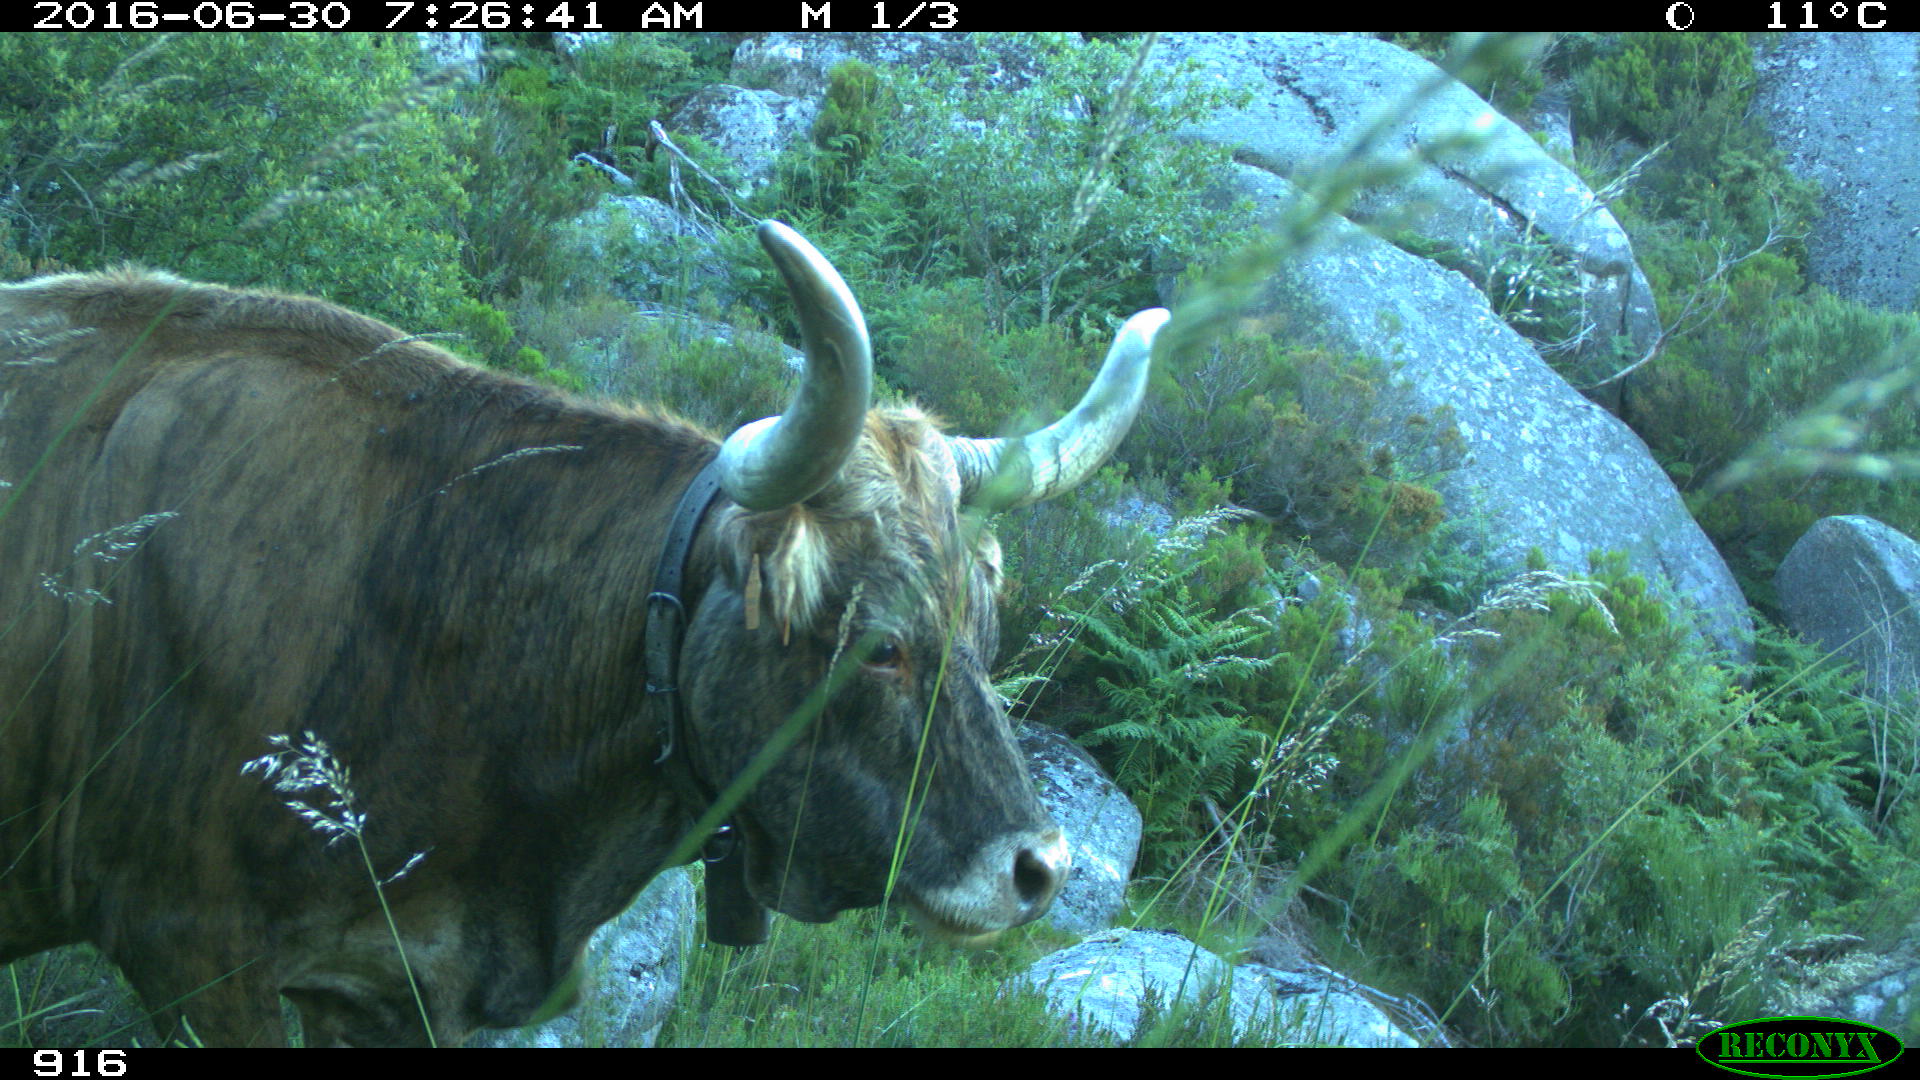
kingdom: Animalia
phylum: Chordata
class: Mammalia
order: Artiodactyla
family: Bovidae
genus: Bos
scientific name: Bos taurus
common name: Domesticated cattle
